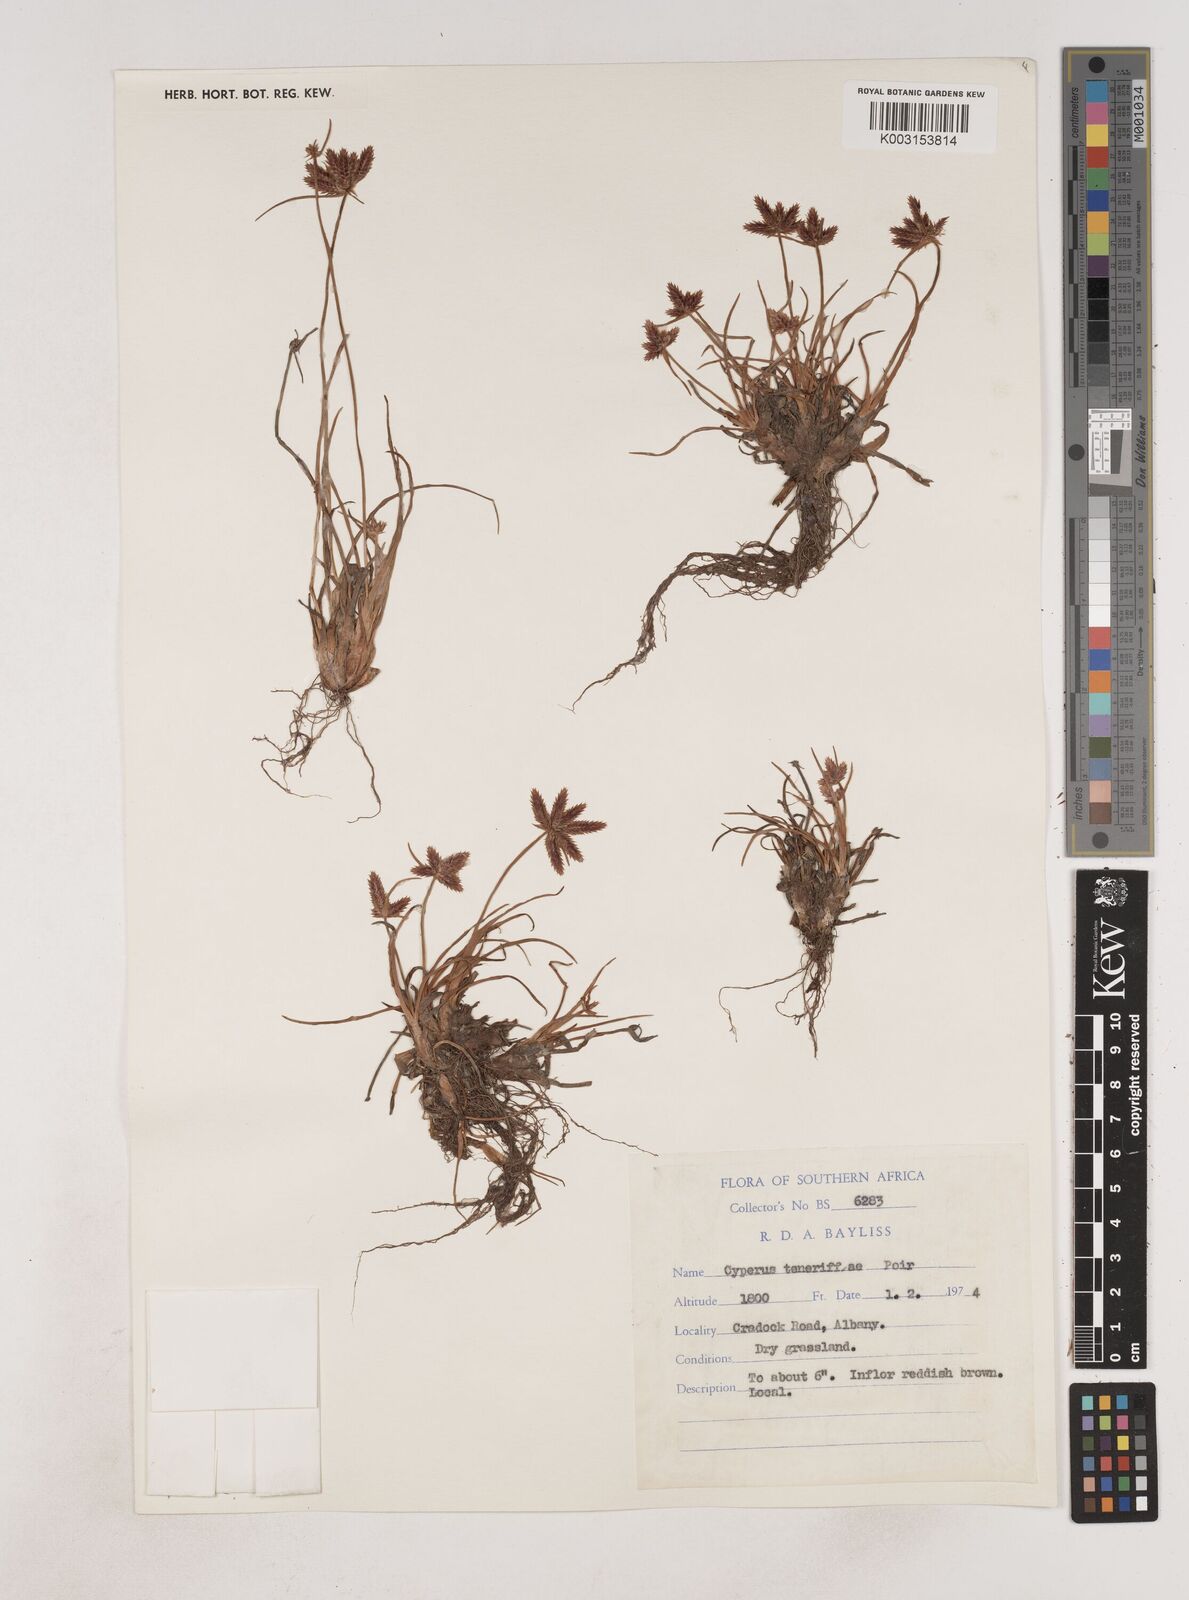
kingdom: Plantae
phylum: Tracheophyta
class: Liliopsida
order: Poales
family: Cyperaceae
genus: Cyperus
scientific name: Cyperus rubicundus
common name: Coco-grass
